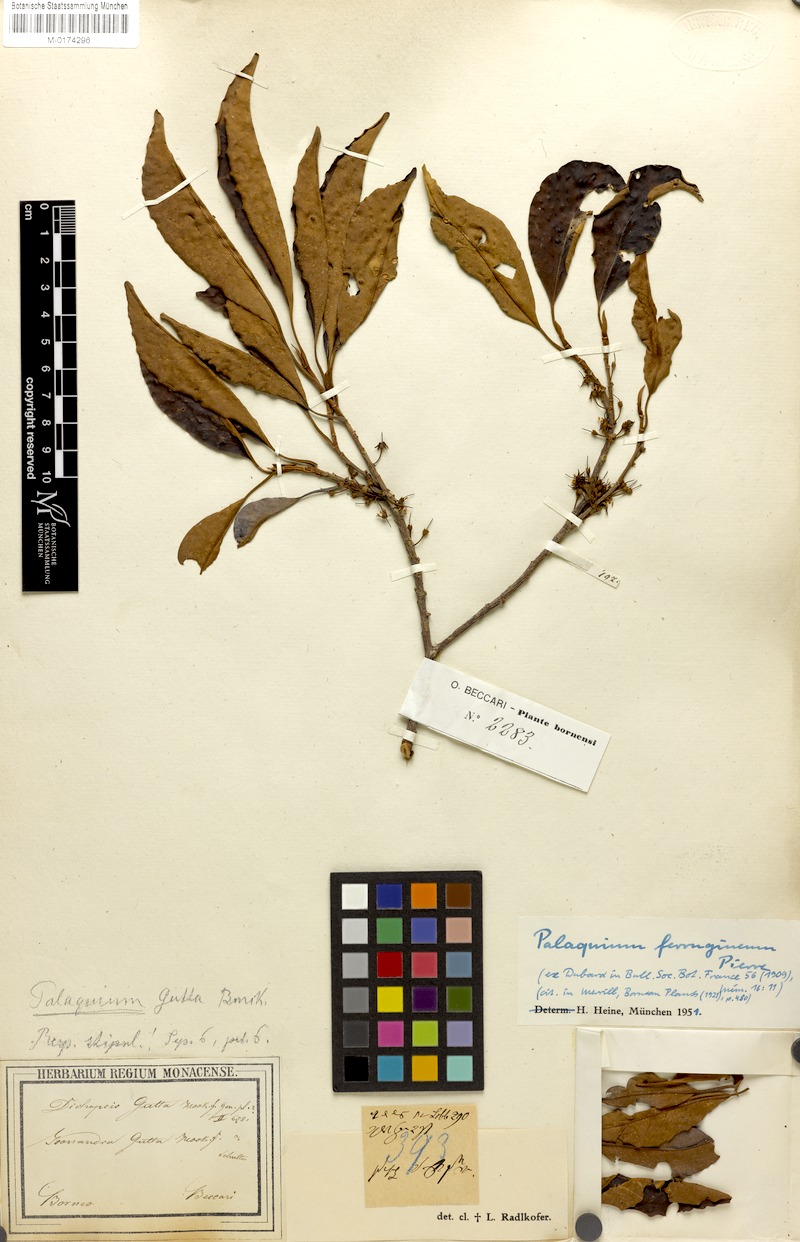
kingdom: Plantae
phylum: Tracheophyta
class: Magnoliopsida
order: Ericales
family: Sapotaceae
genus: Palaquium
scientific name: Palaquium ferrugineum
